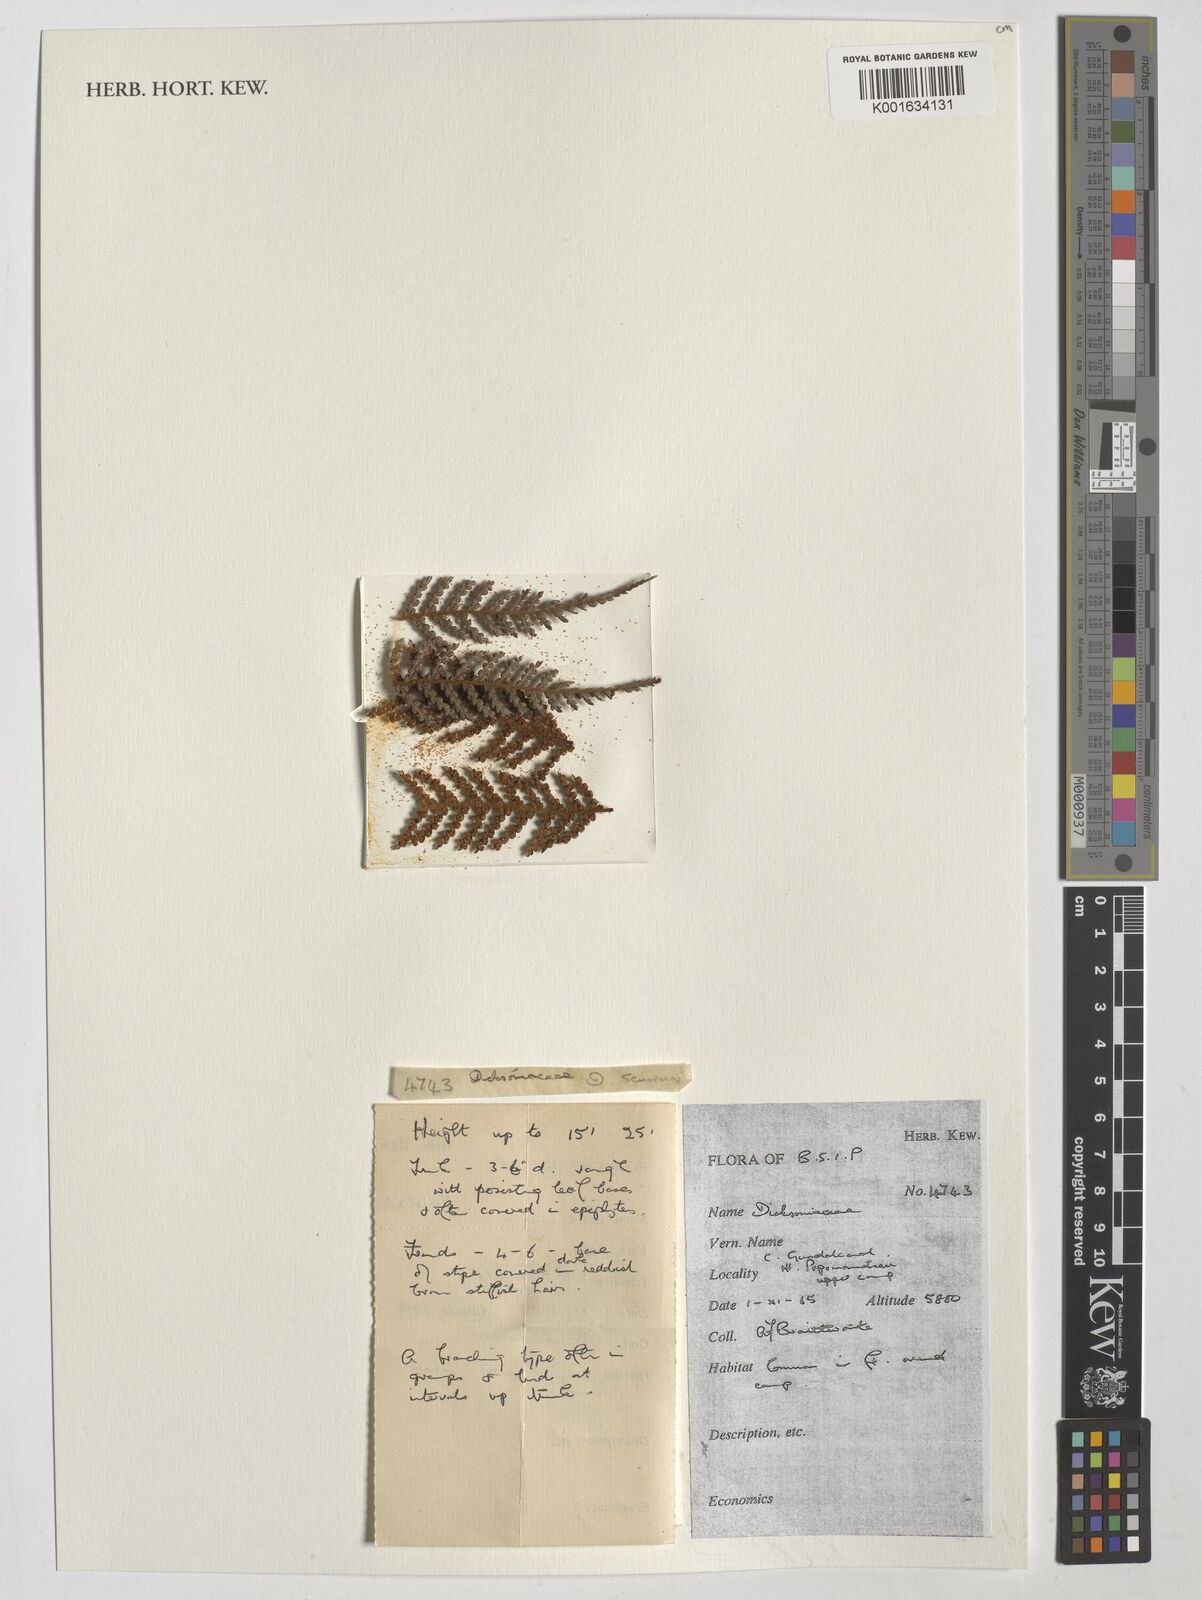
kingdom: Plantae
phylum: Tracheophyta
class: Polypodiopsida
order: Cyatheales
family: Dicksoniaceae
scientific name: Dicksoniaceae
